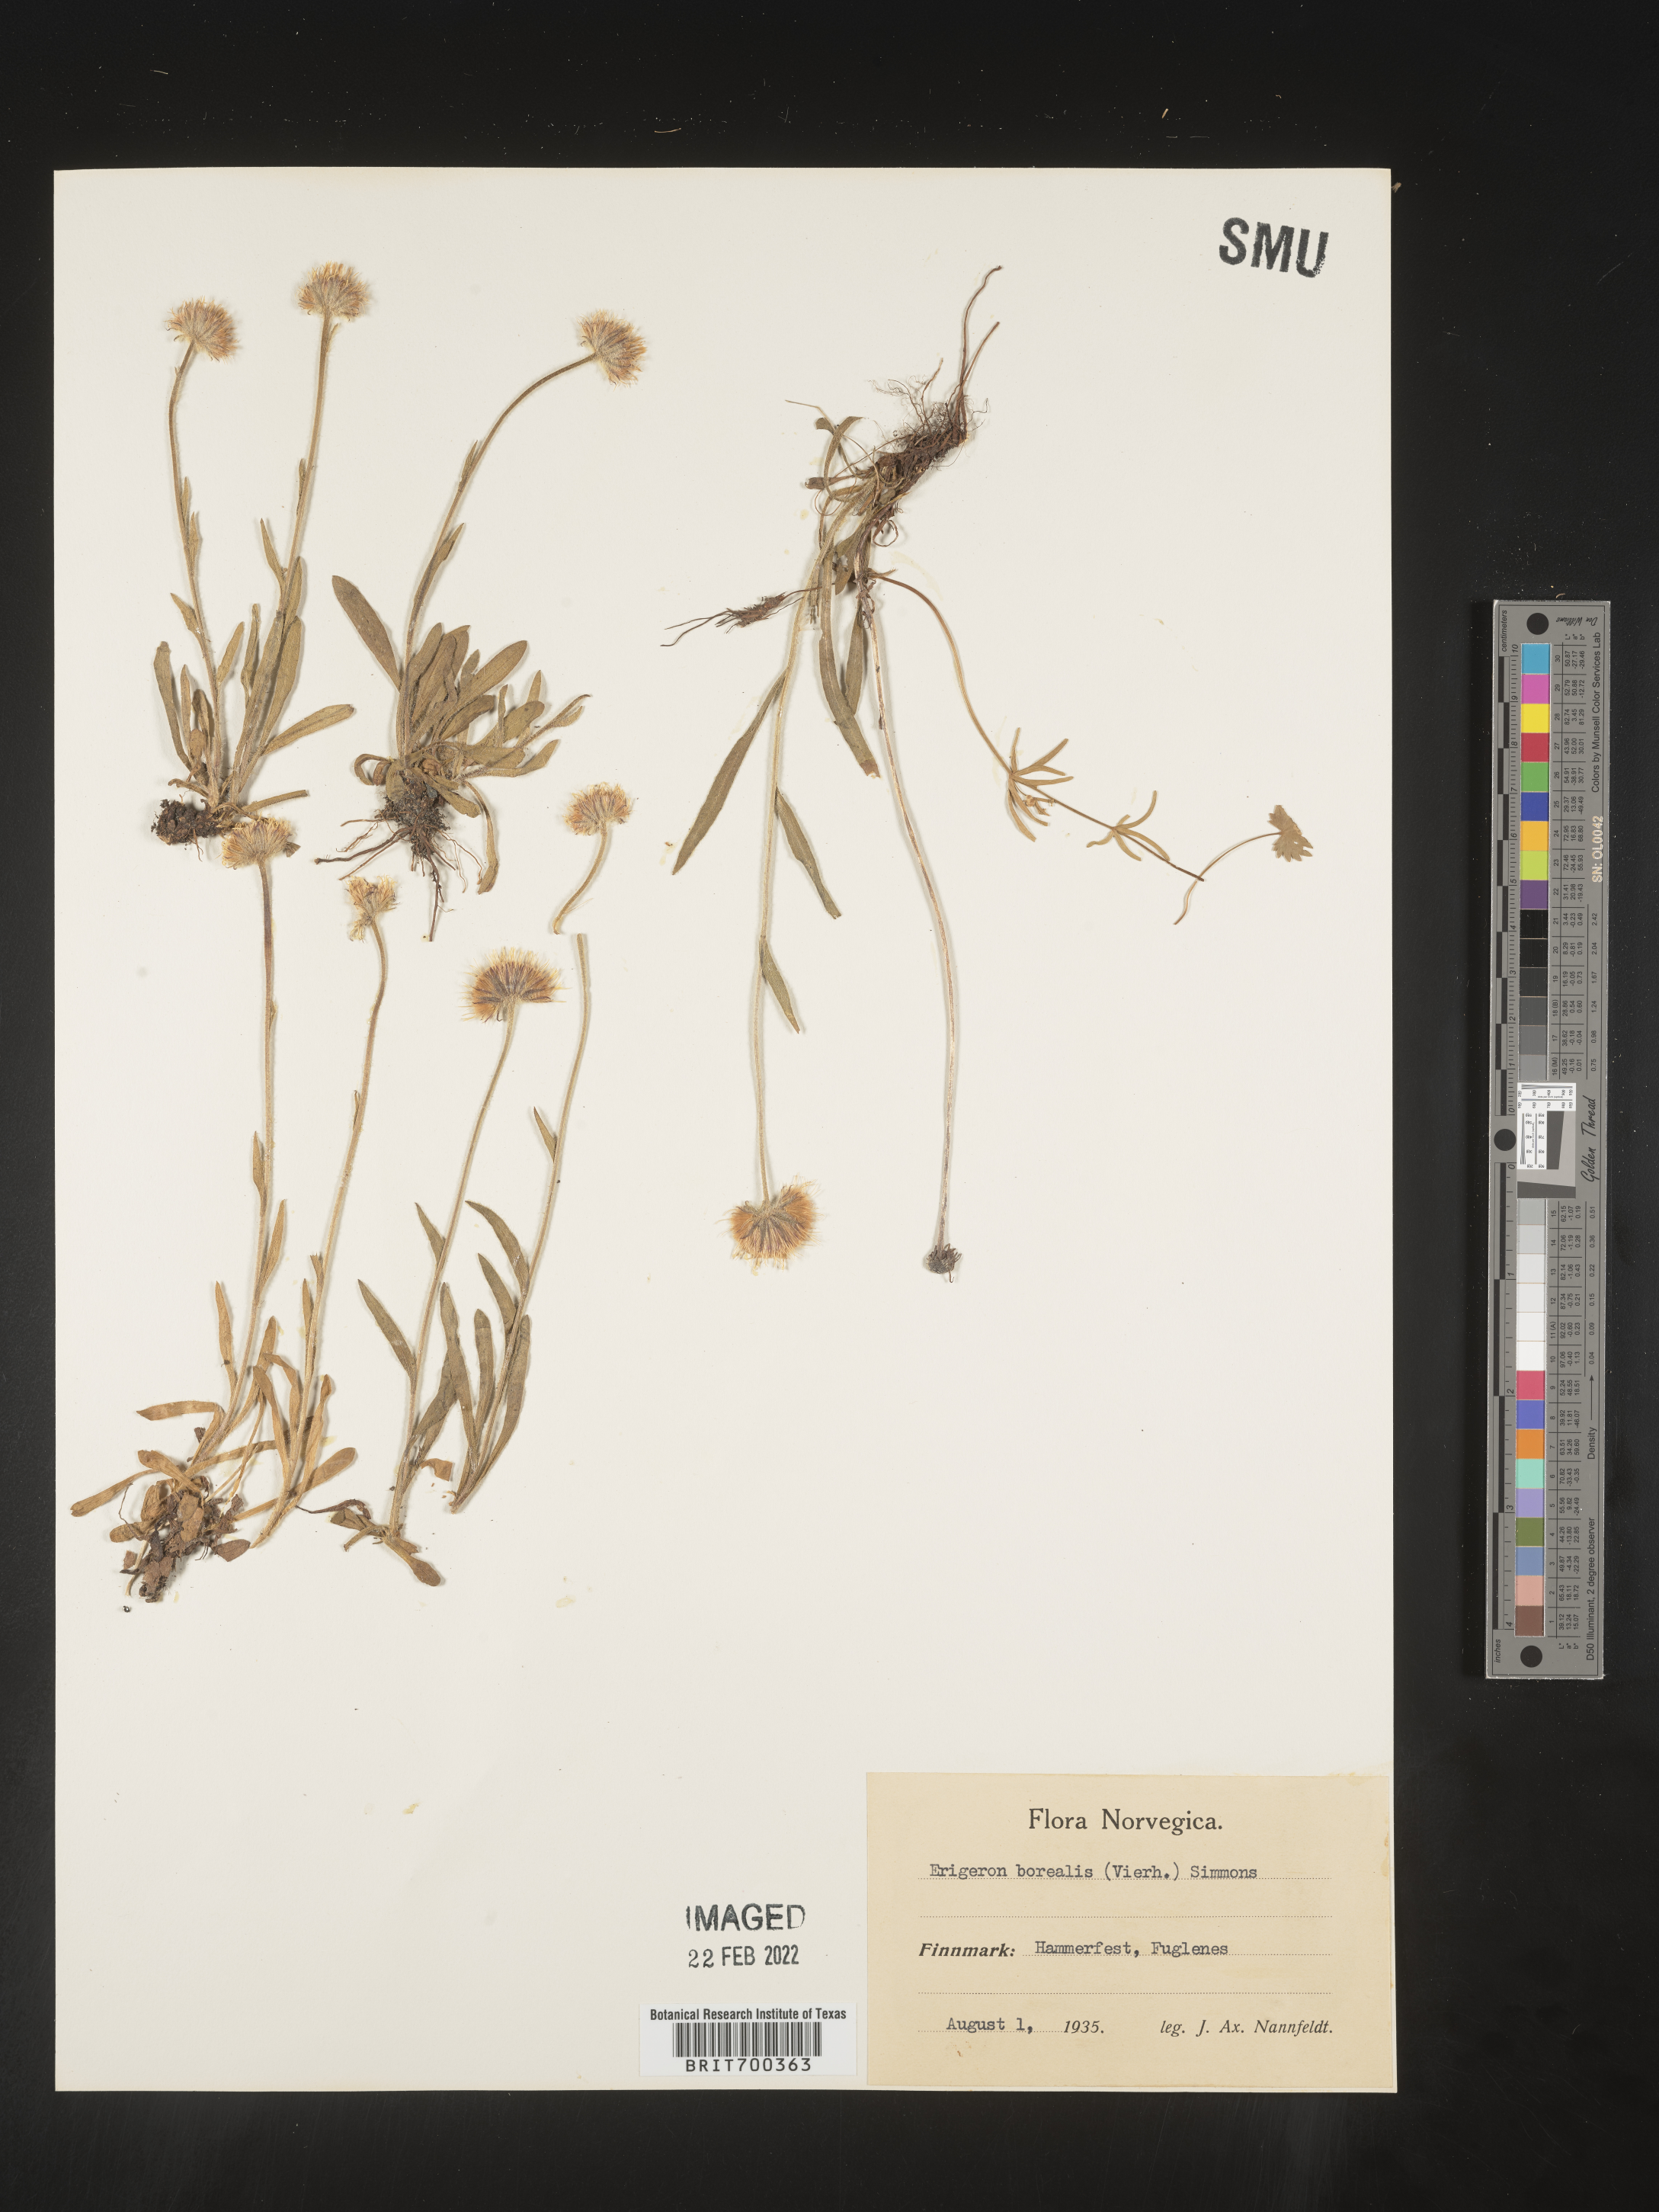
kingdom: Plantae
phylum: Tracheophyta
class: Magnoliopsida
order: Asterales
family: Asteraceae
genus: Erigeron
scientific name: Erigeron
